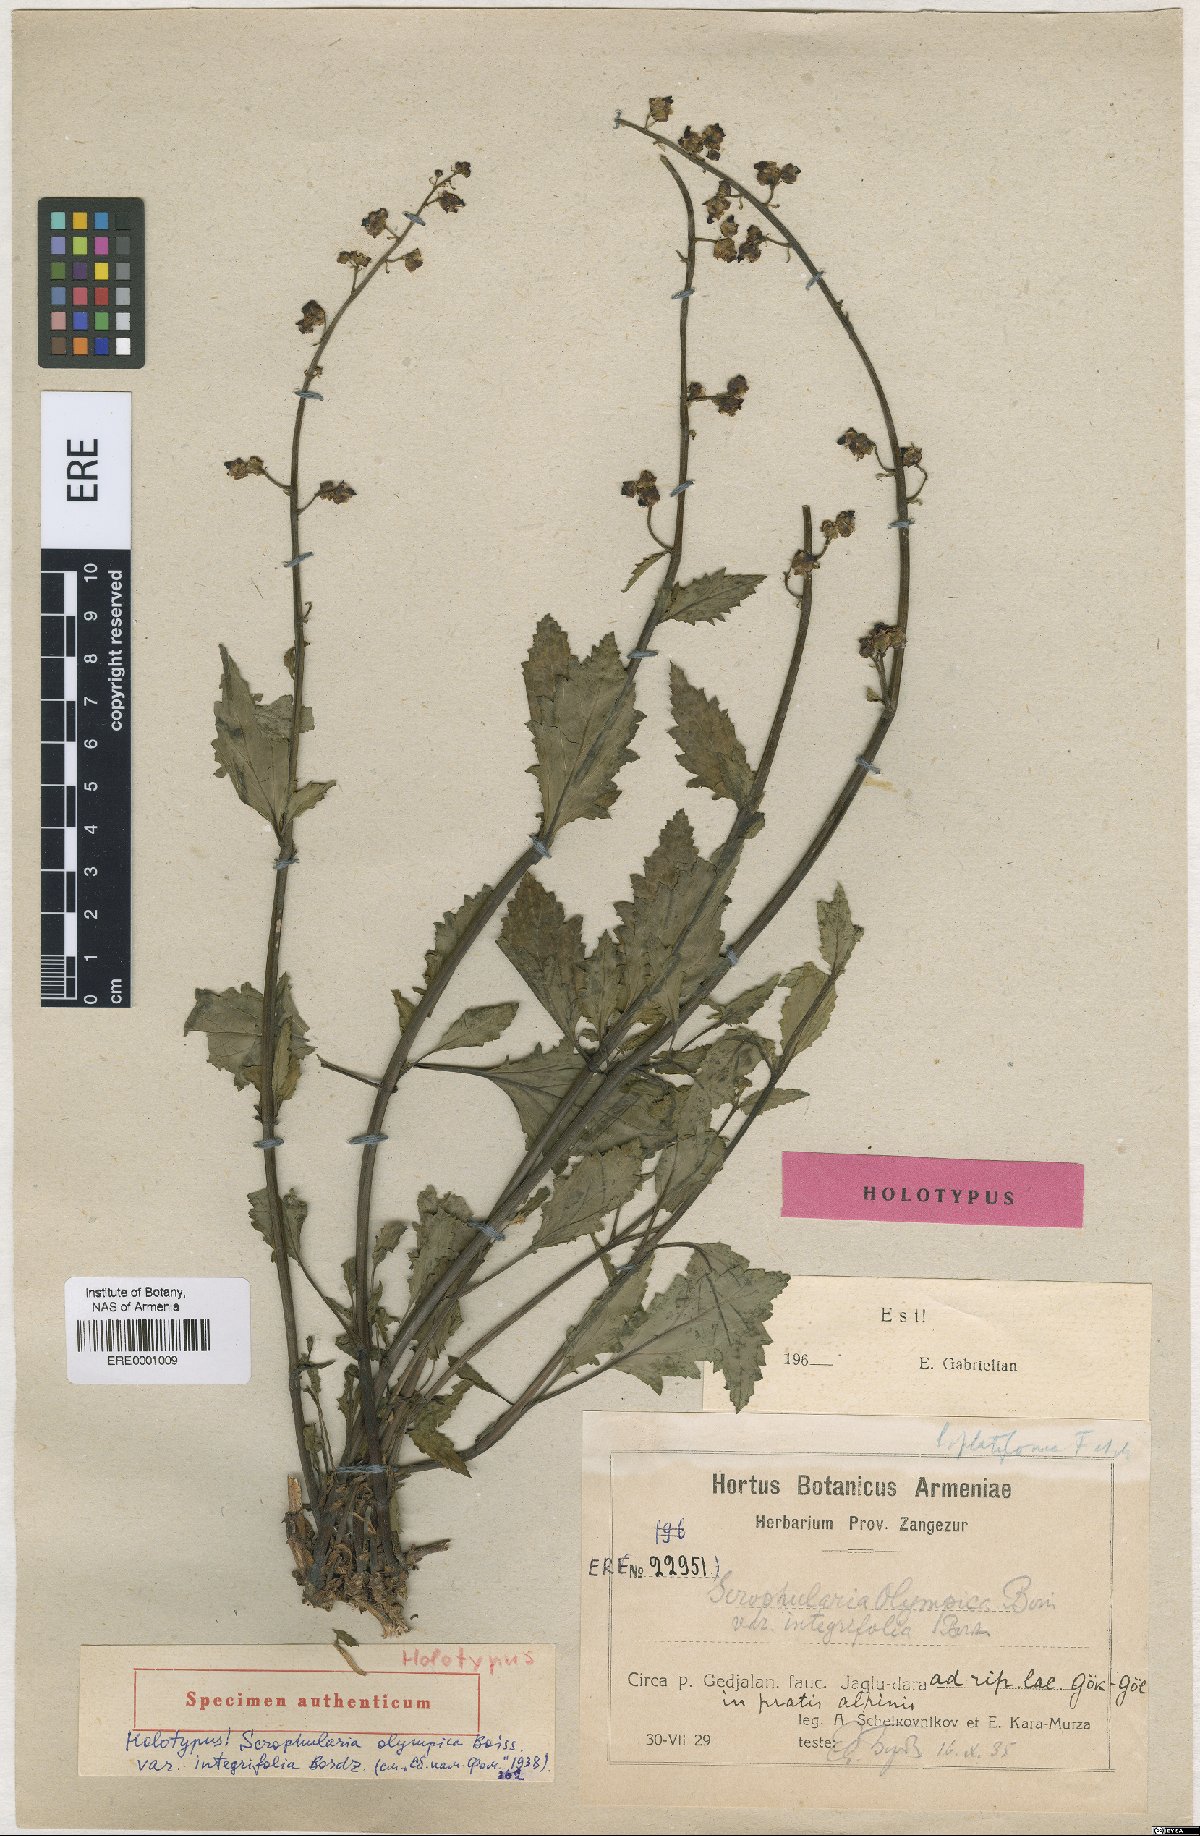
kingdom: Plantae
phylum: Tracheophyta
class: Magnoliopsida
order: Lamiales
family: Scrophulariaceae
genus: Scrophularia
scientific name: Scrophularia
